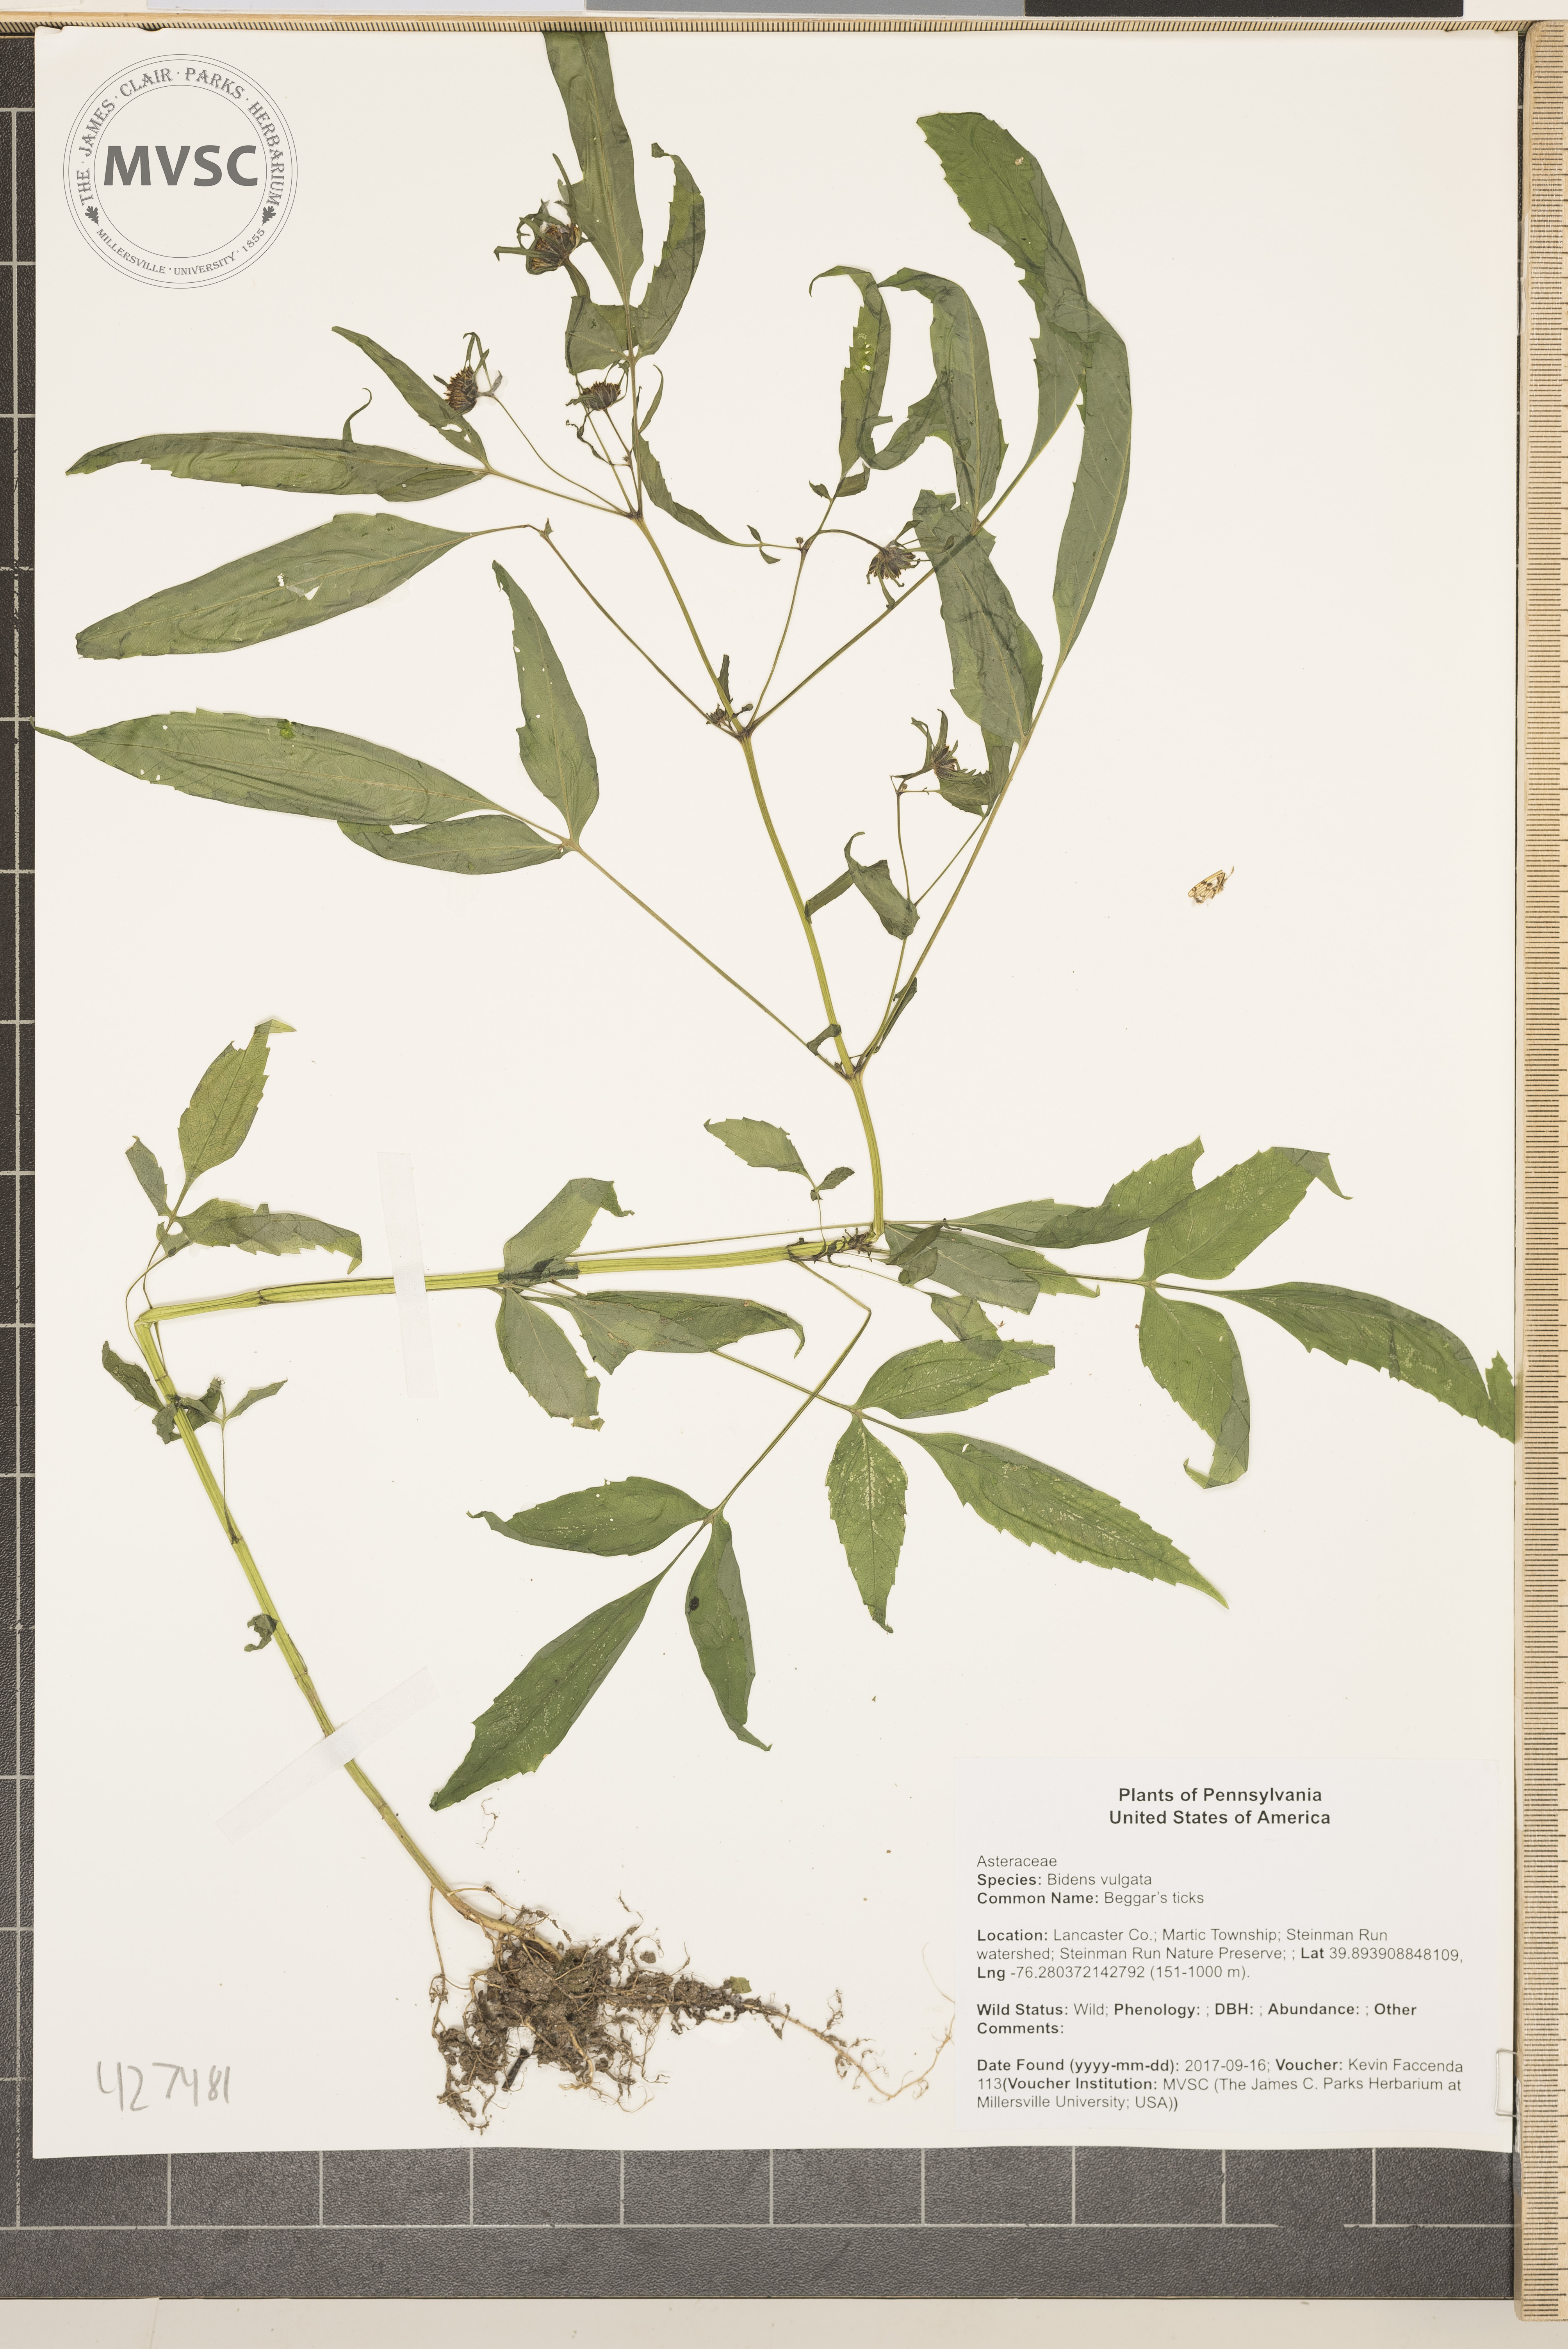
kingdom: Plantae
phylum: Tracheophyta
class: Magnoliopsida
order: Asterales
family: Asteraceae
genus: Bidens
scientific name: Bidens vulgata
